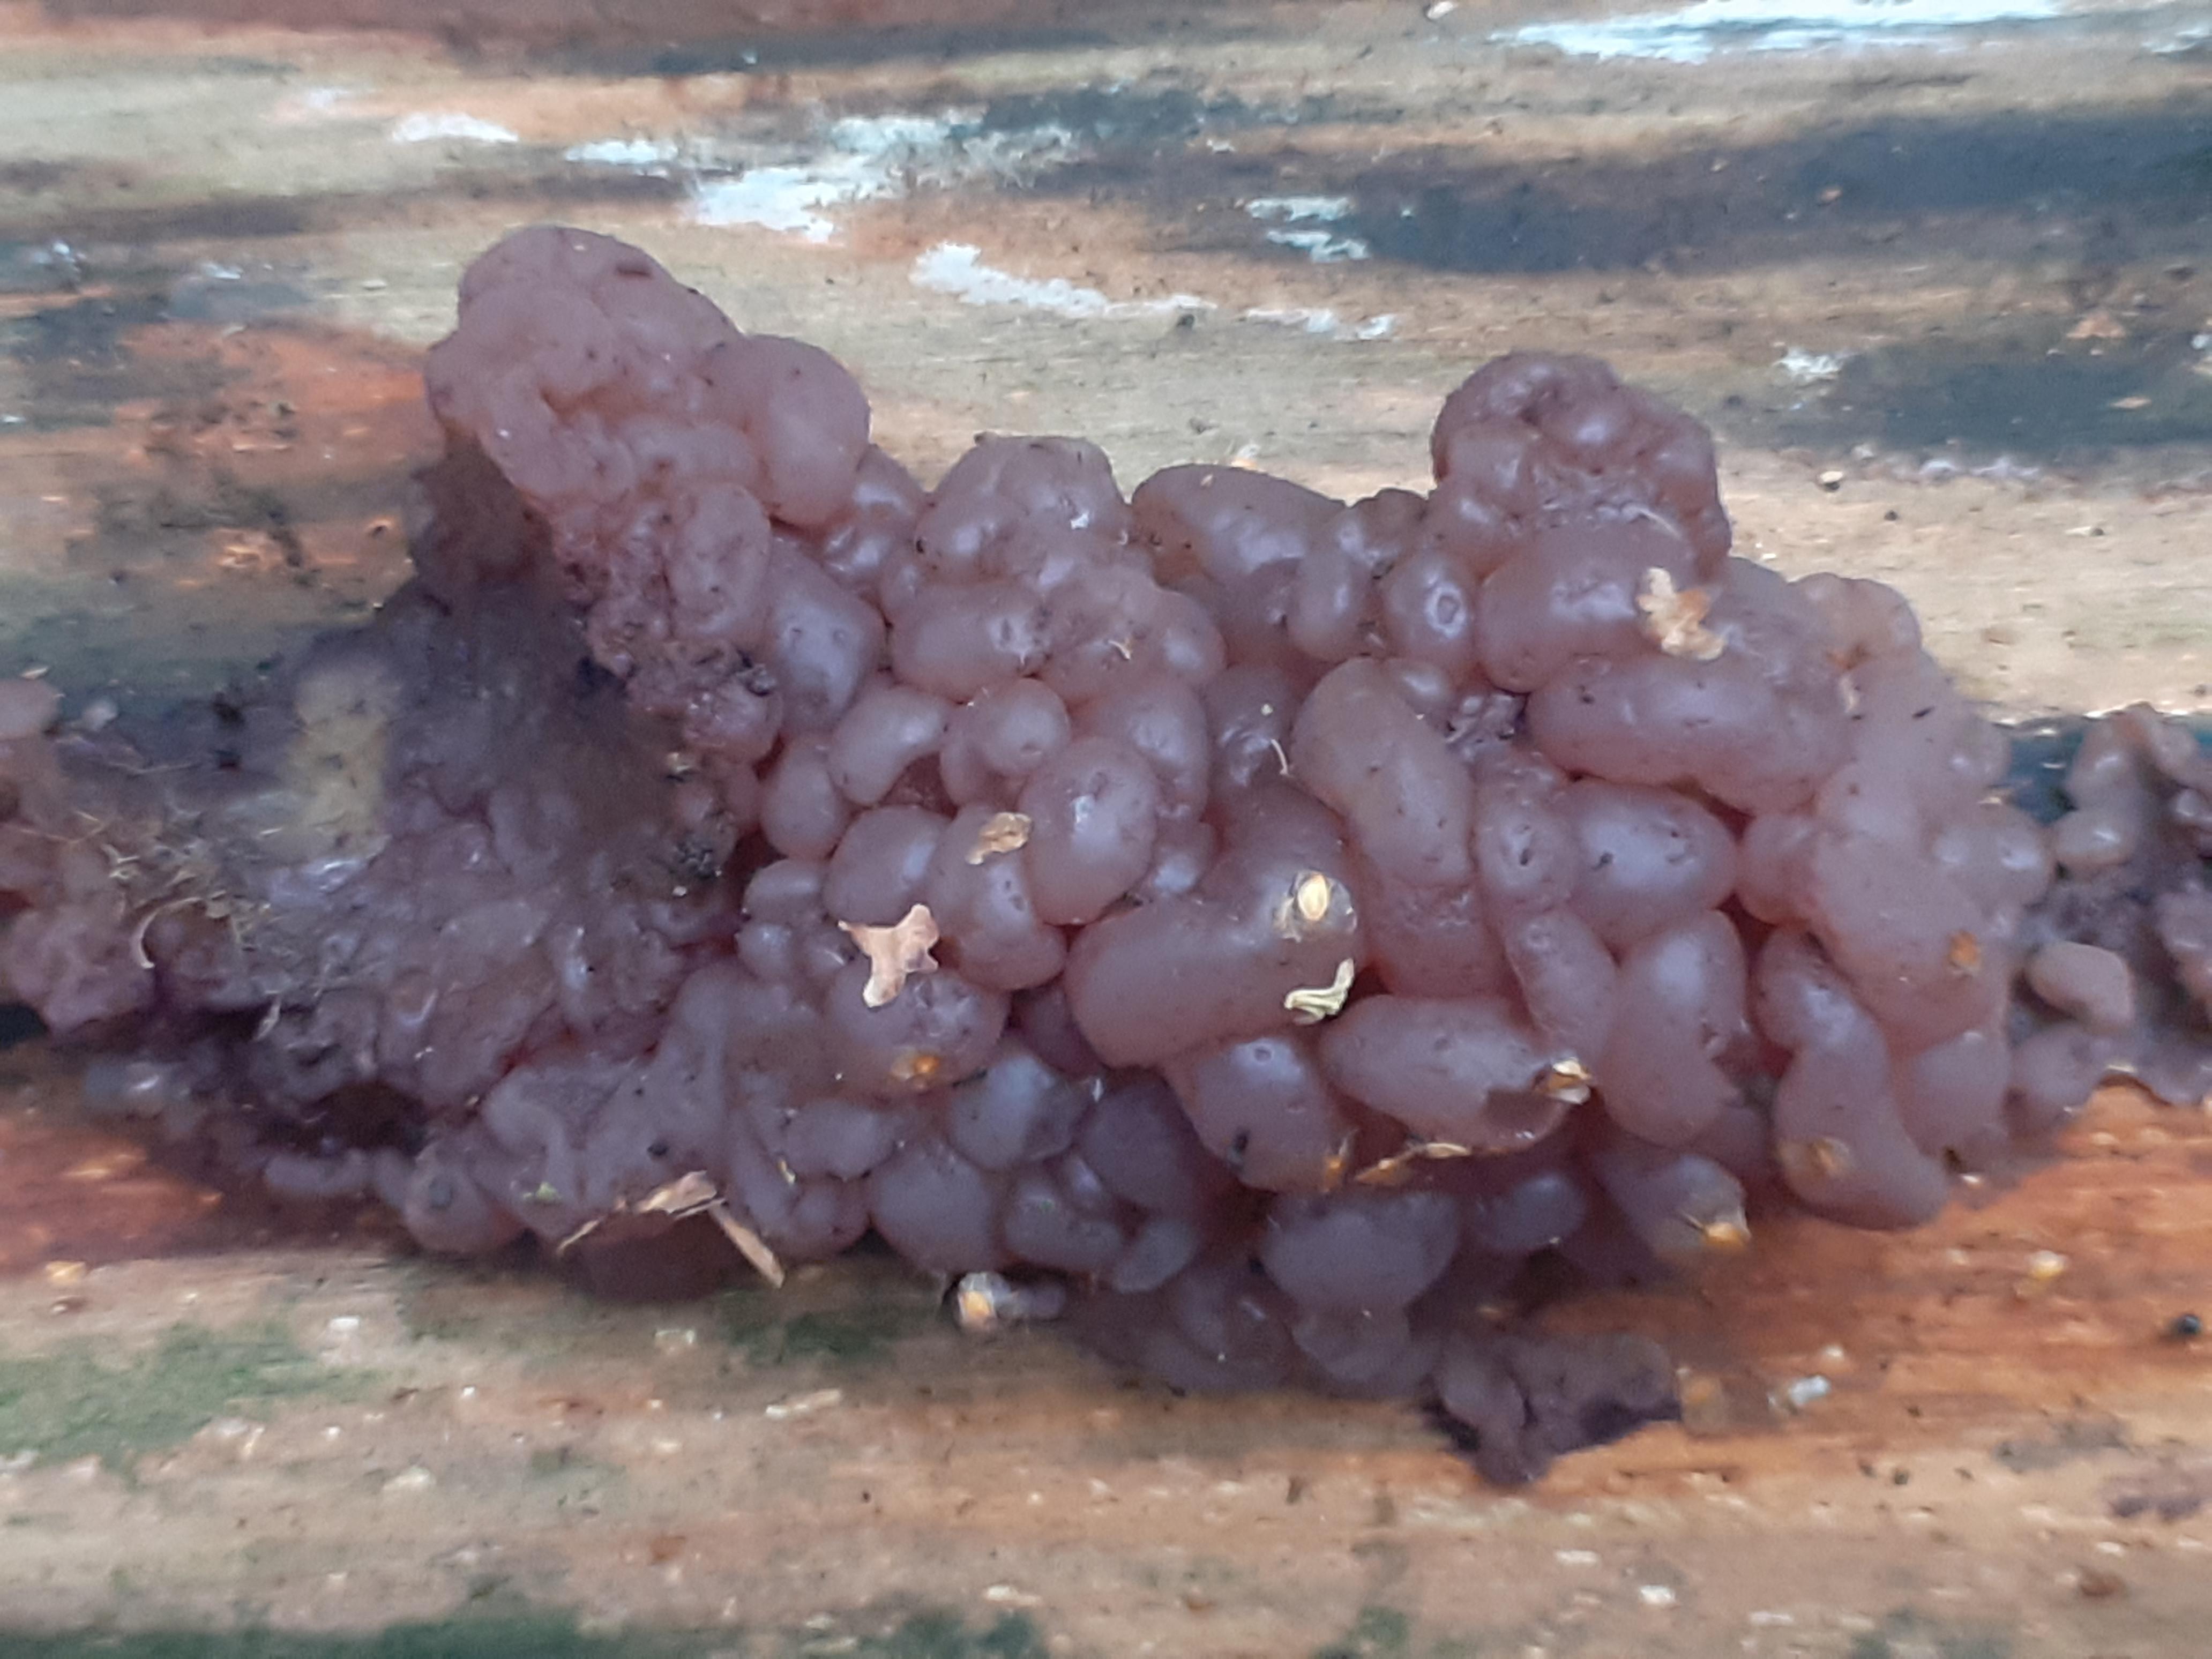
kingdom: Fungi
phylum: Ascomycota
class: Leotiomycetes
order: Helotiales
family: Gelatinodiscaceae
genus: Ascotremella
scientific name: Ascotremella faginea
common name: hjerne-bævreskive
